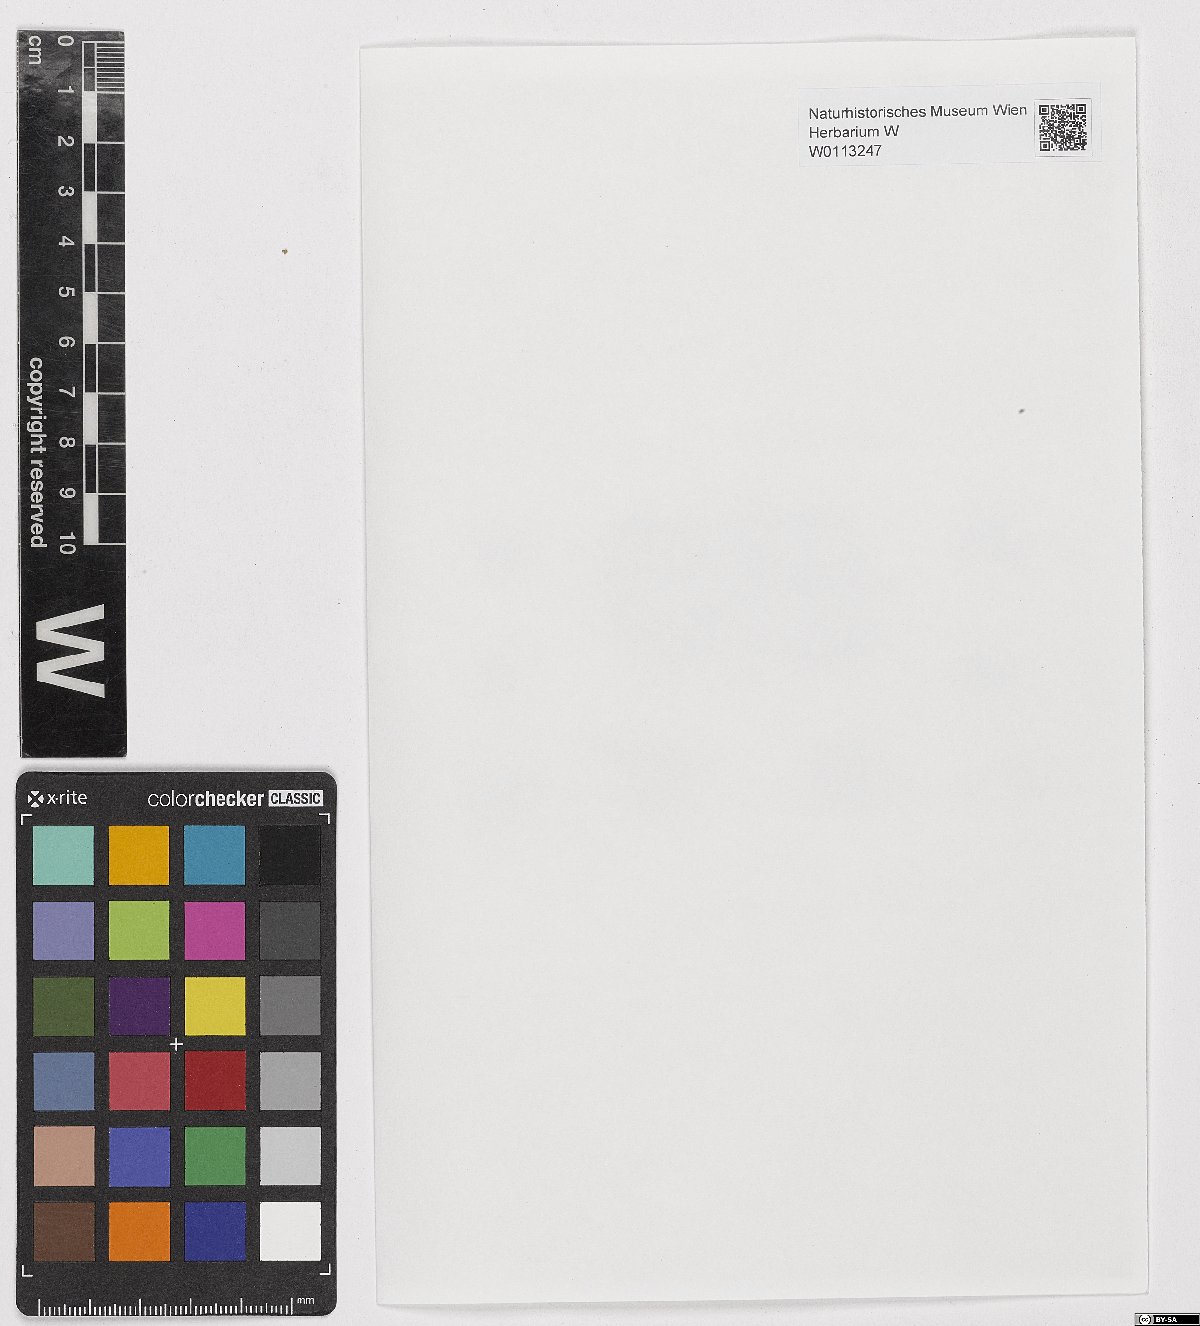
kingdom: Plantae
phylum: Bryophyta
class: Bryopsida
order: Pottiales
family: Pottiaceae
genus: Weissia
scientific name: Weissia squarrosa
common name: Spreading-leaved beardless-moss
